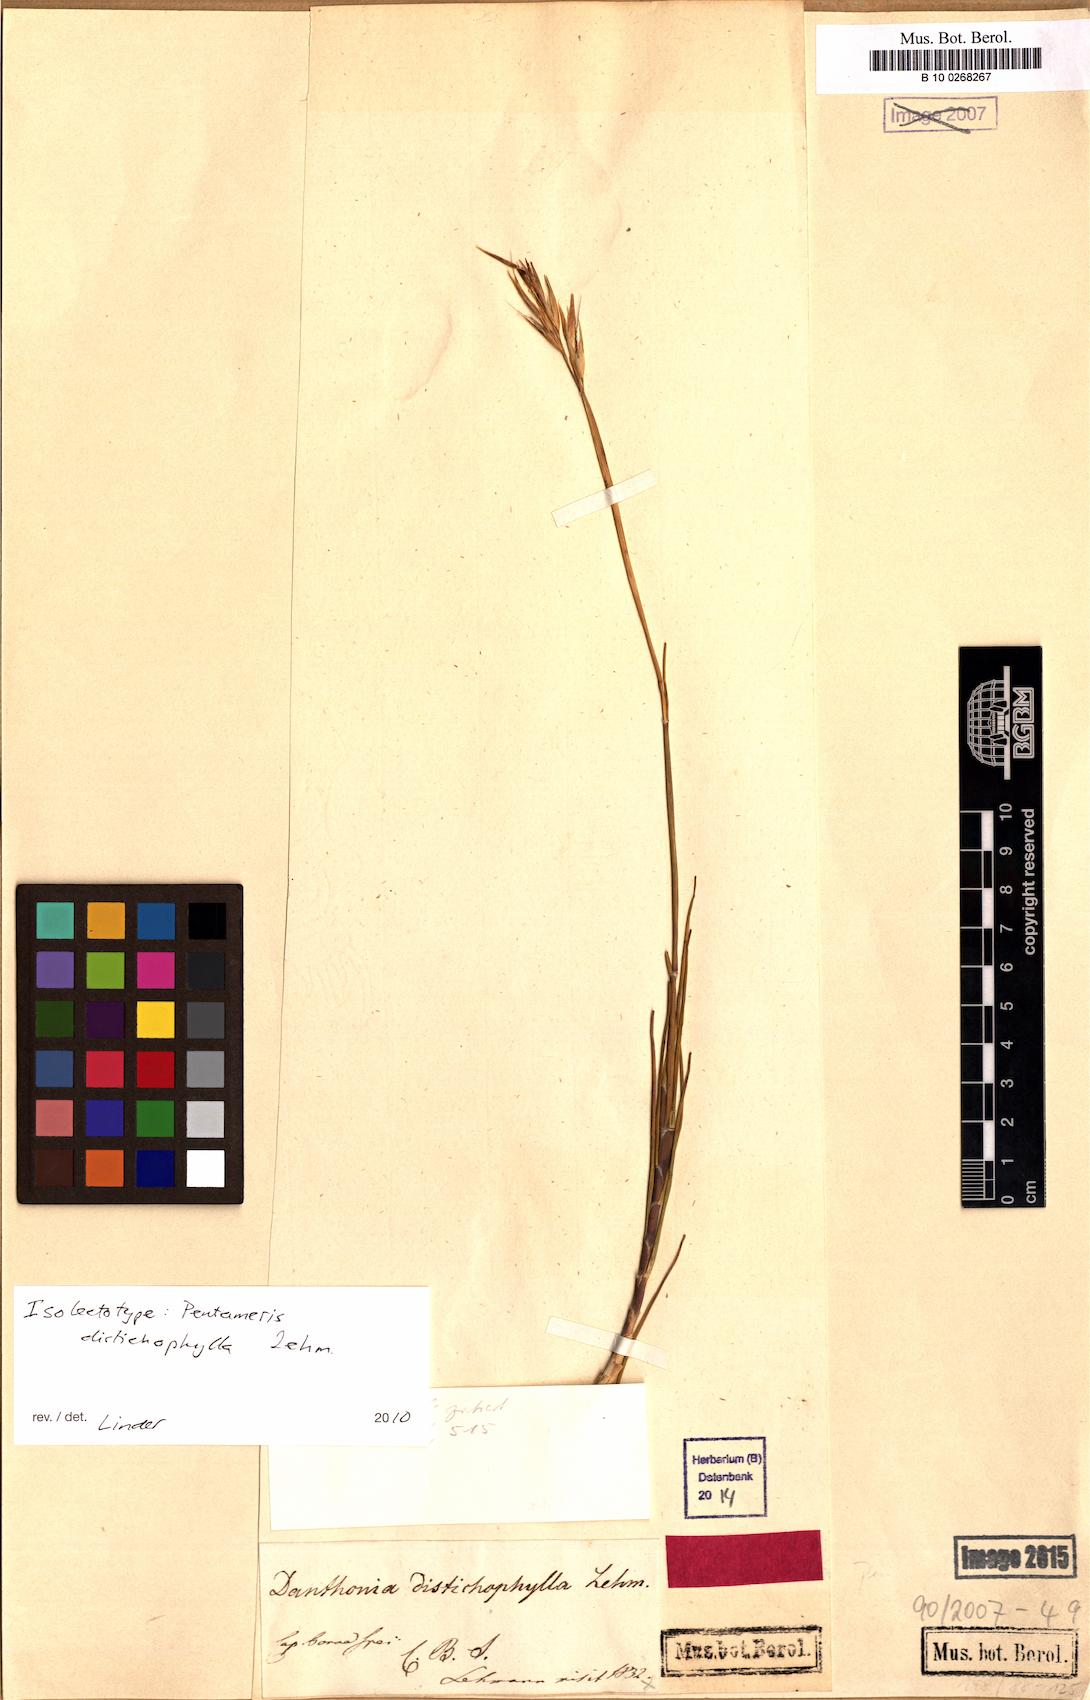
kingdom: Plantae
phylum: Tracheophyta
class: Liliopsida
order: Poales
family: Poaceae
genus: Pentameris
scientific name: Pentameris dregeana
